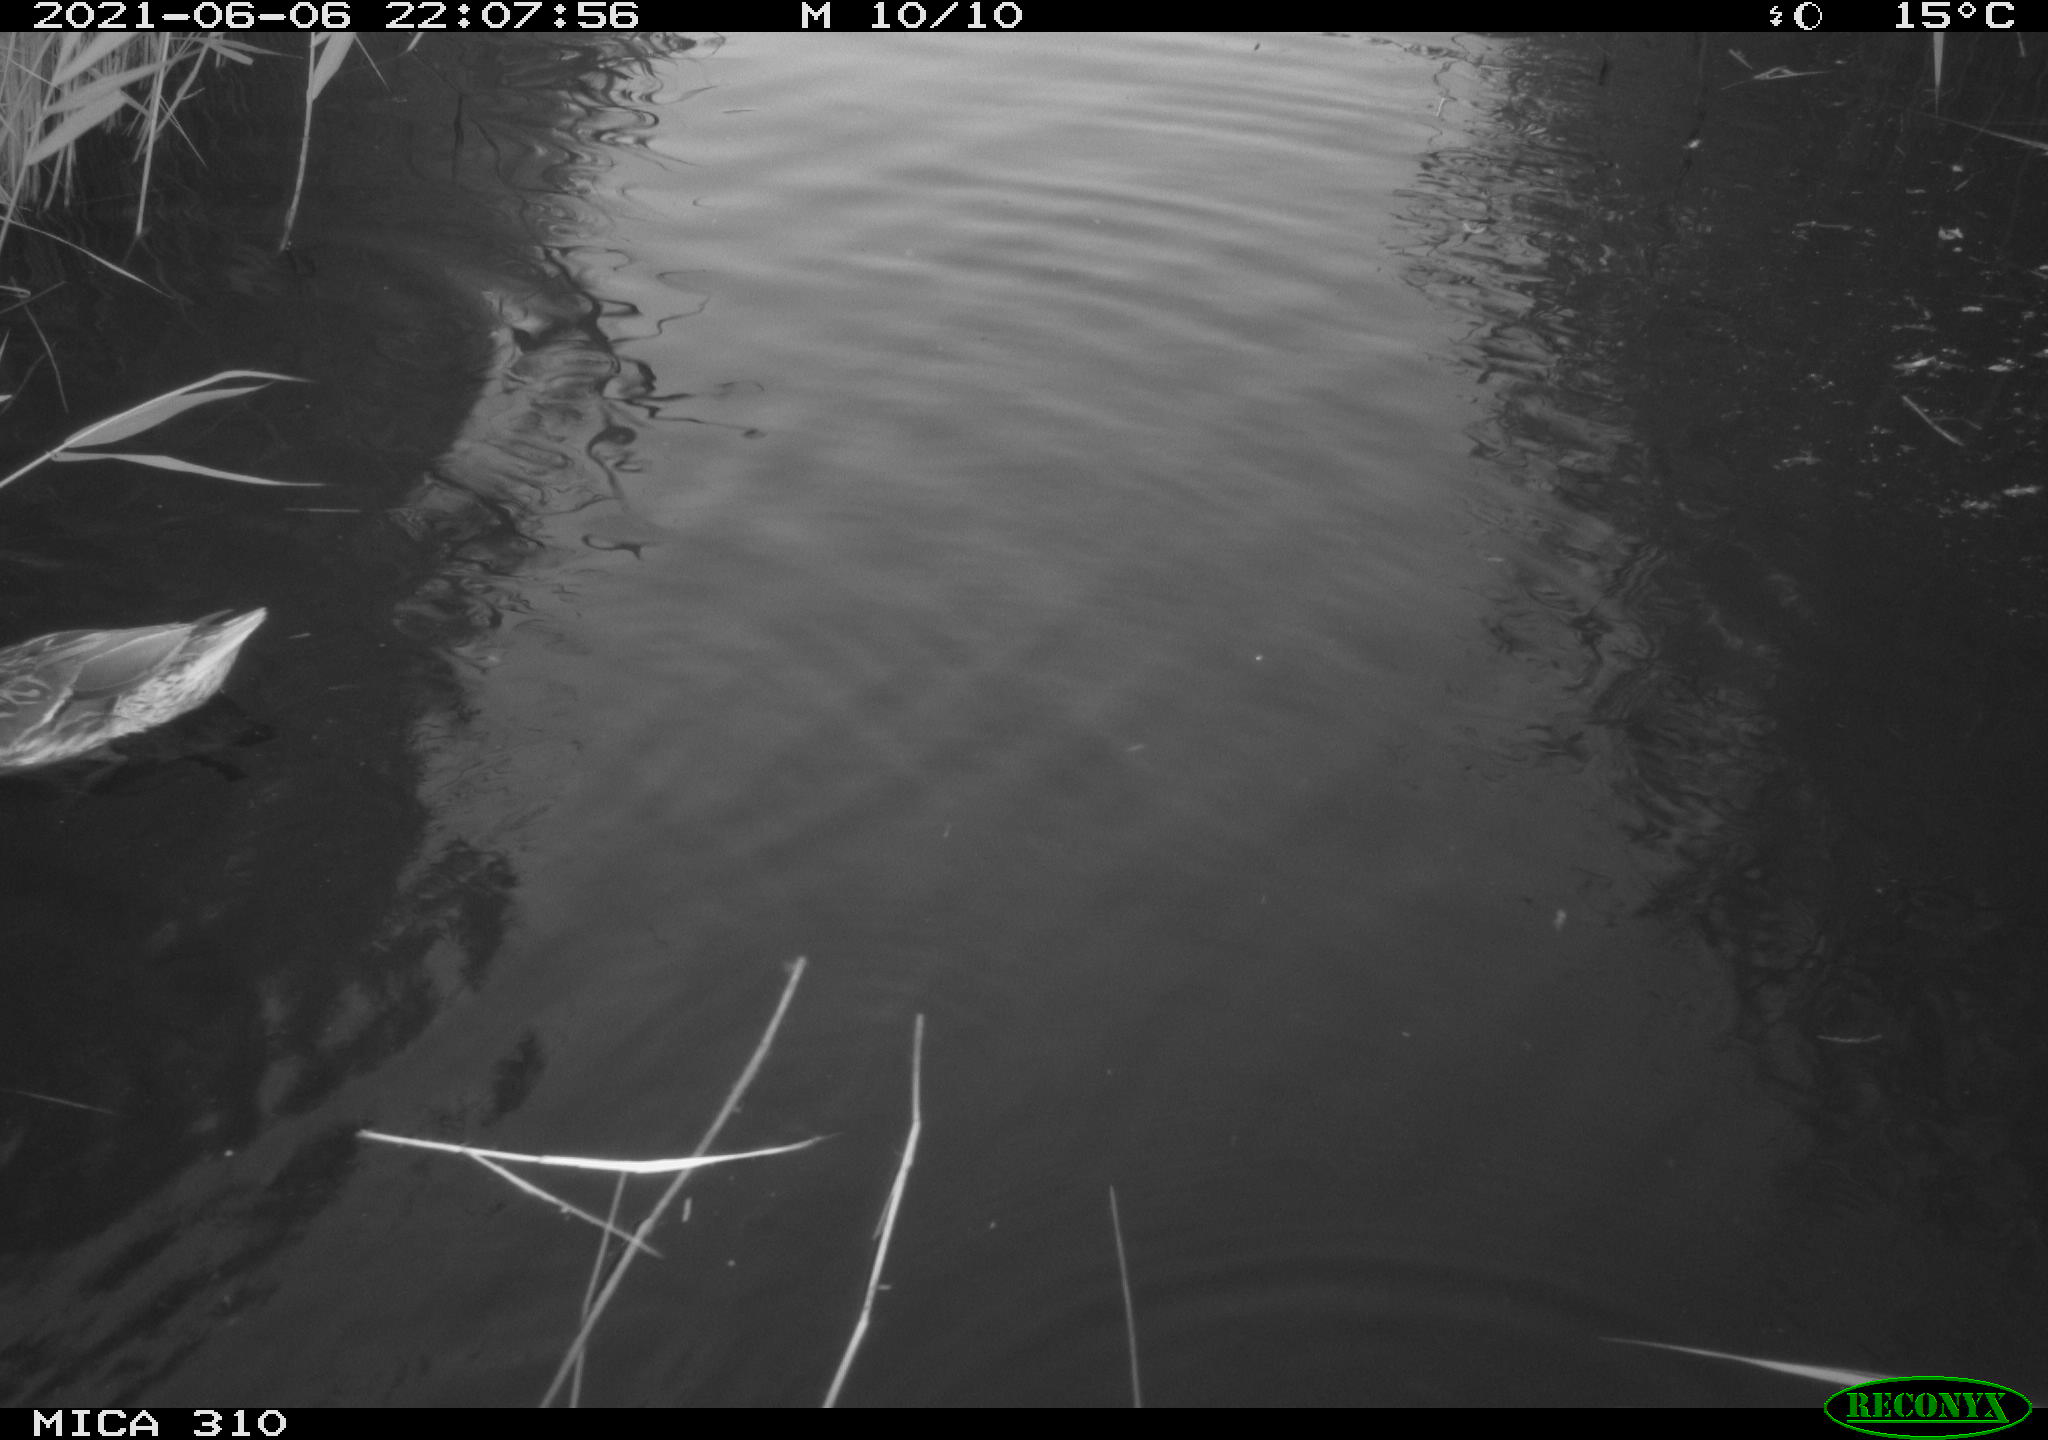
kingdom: Animalia
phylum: Chordata
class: Aves
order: Anseriformes
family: Anatidae
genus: Anas
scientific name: Anas platyrhynchos
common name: Mallard
